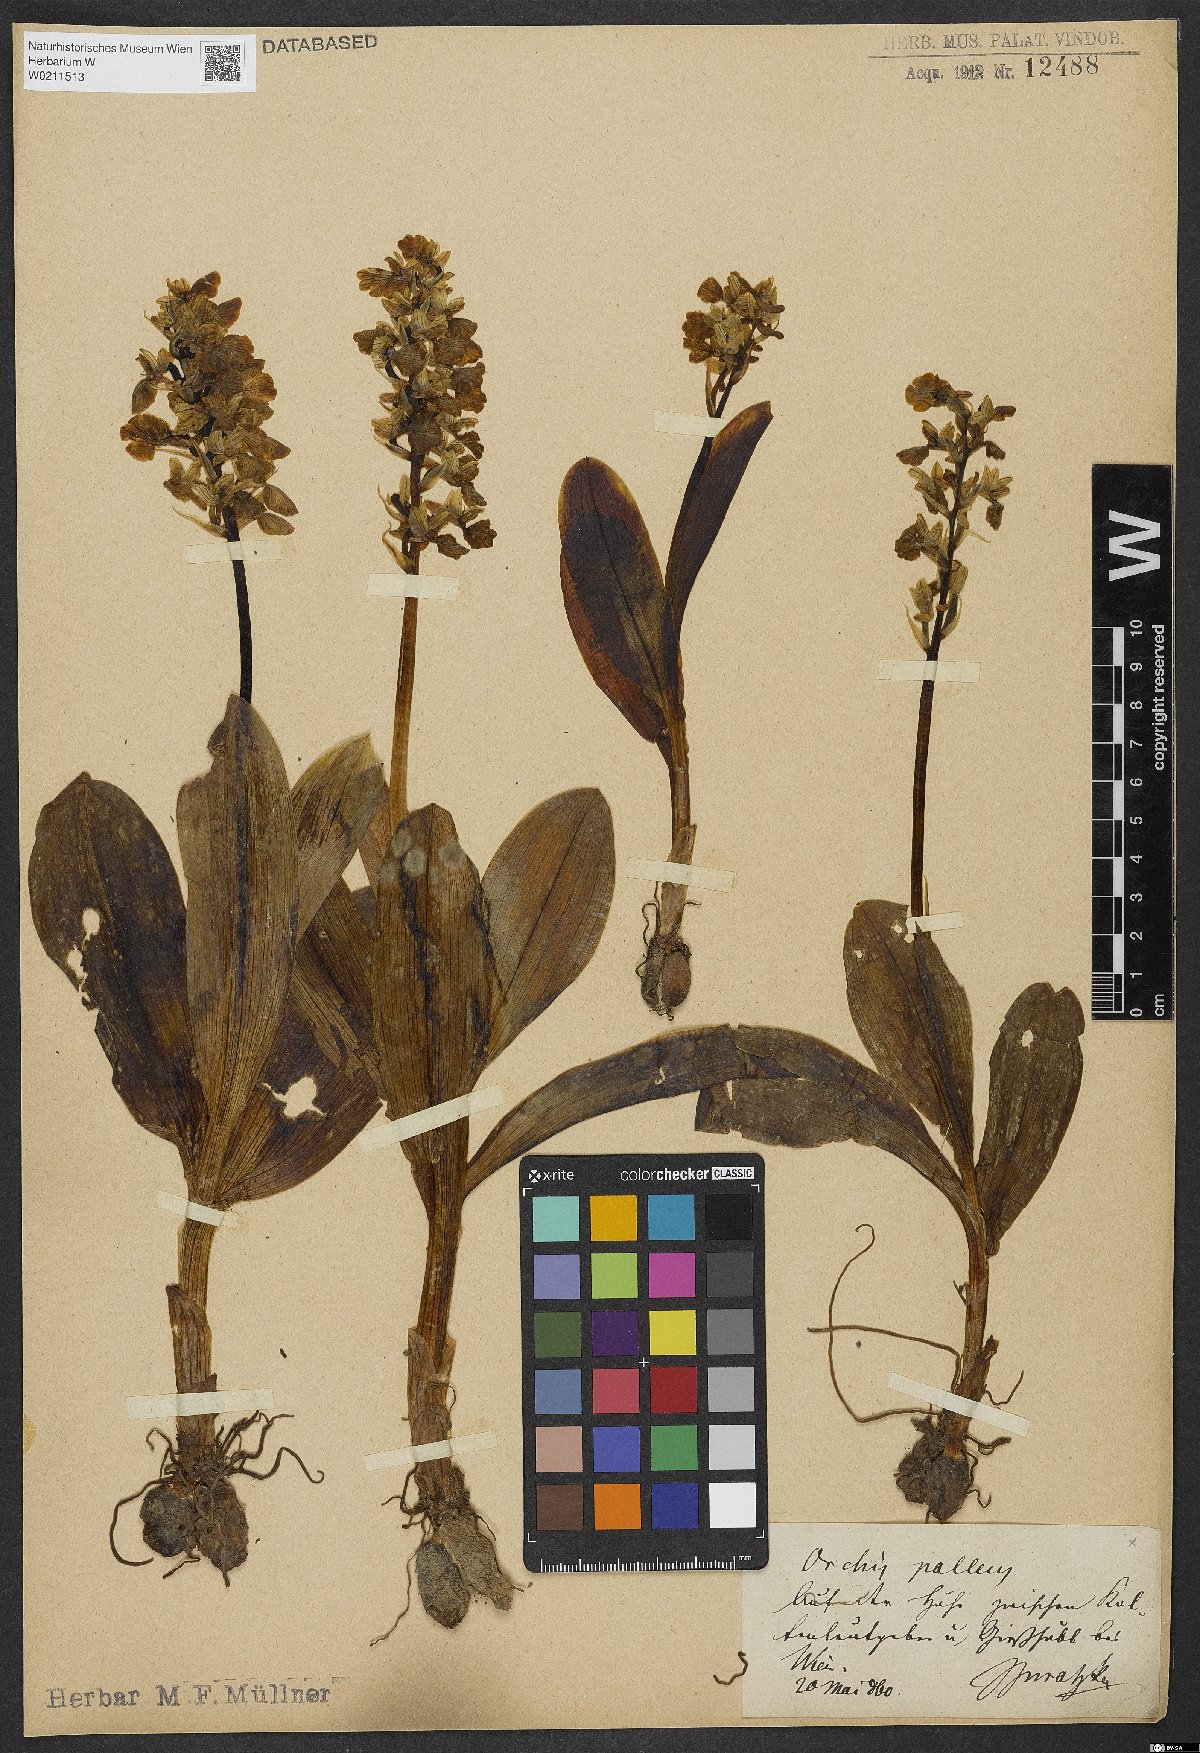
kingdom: Plantae
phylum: Tracheophyta
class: Liliopsida
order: Asparagales
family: Orchidaceae
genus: Orchis
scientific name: Orchis pallens
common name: Pale-flowered orchid
